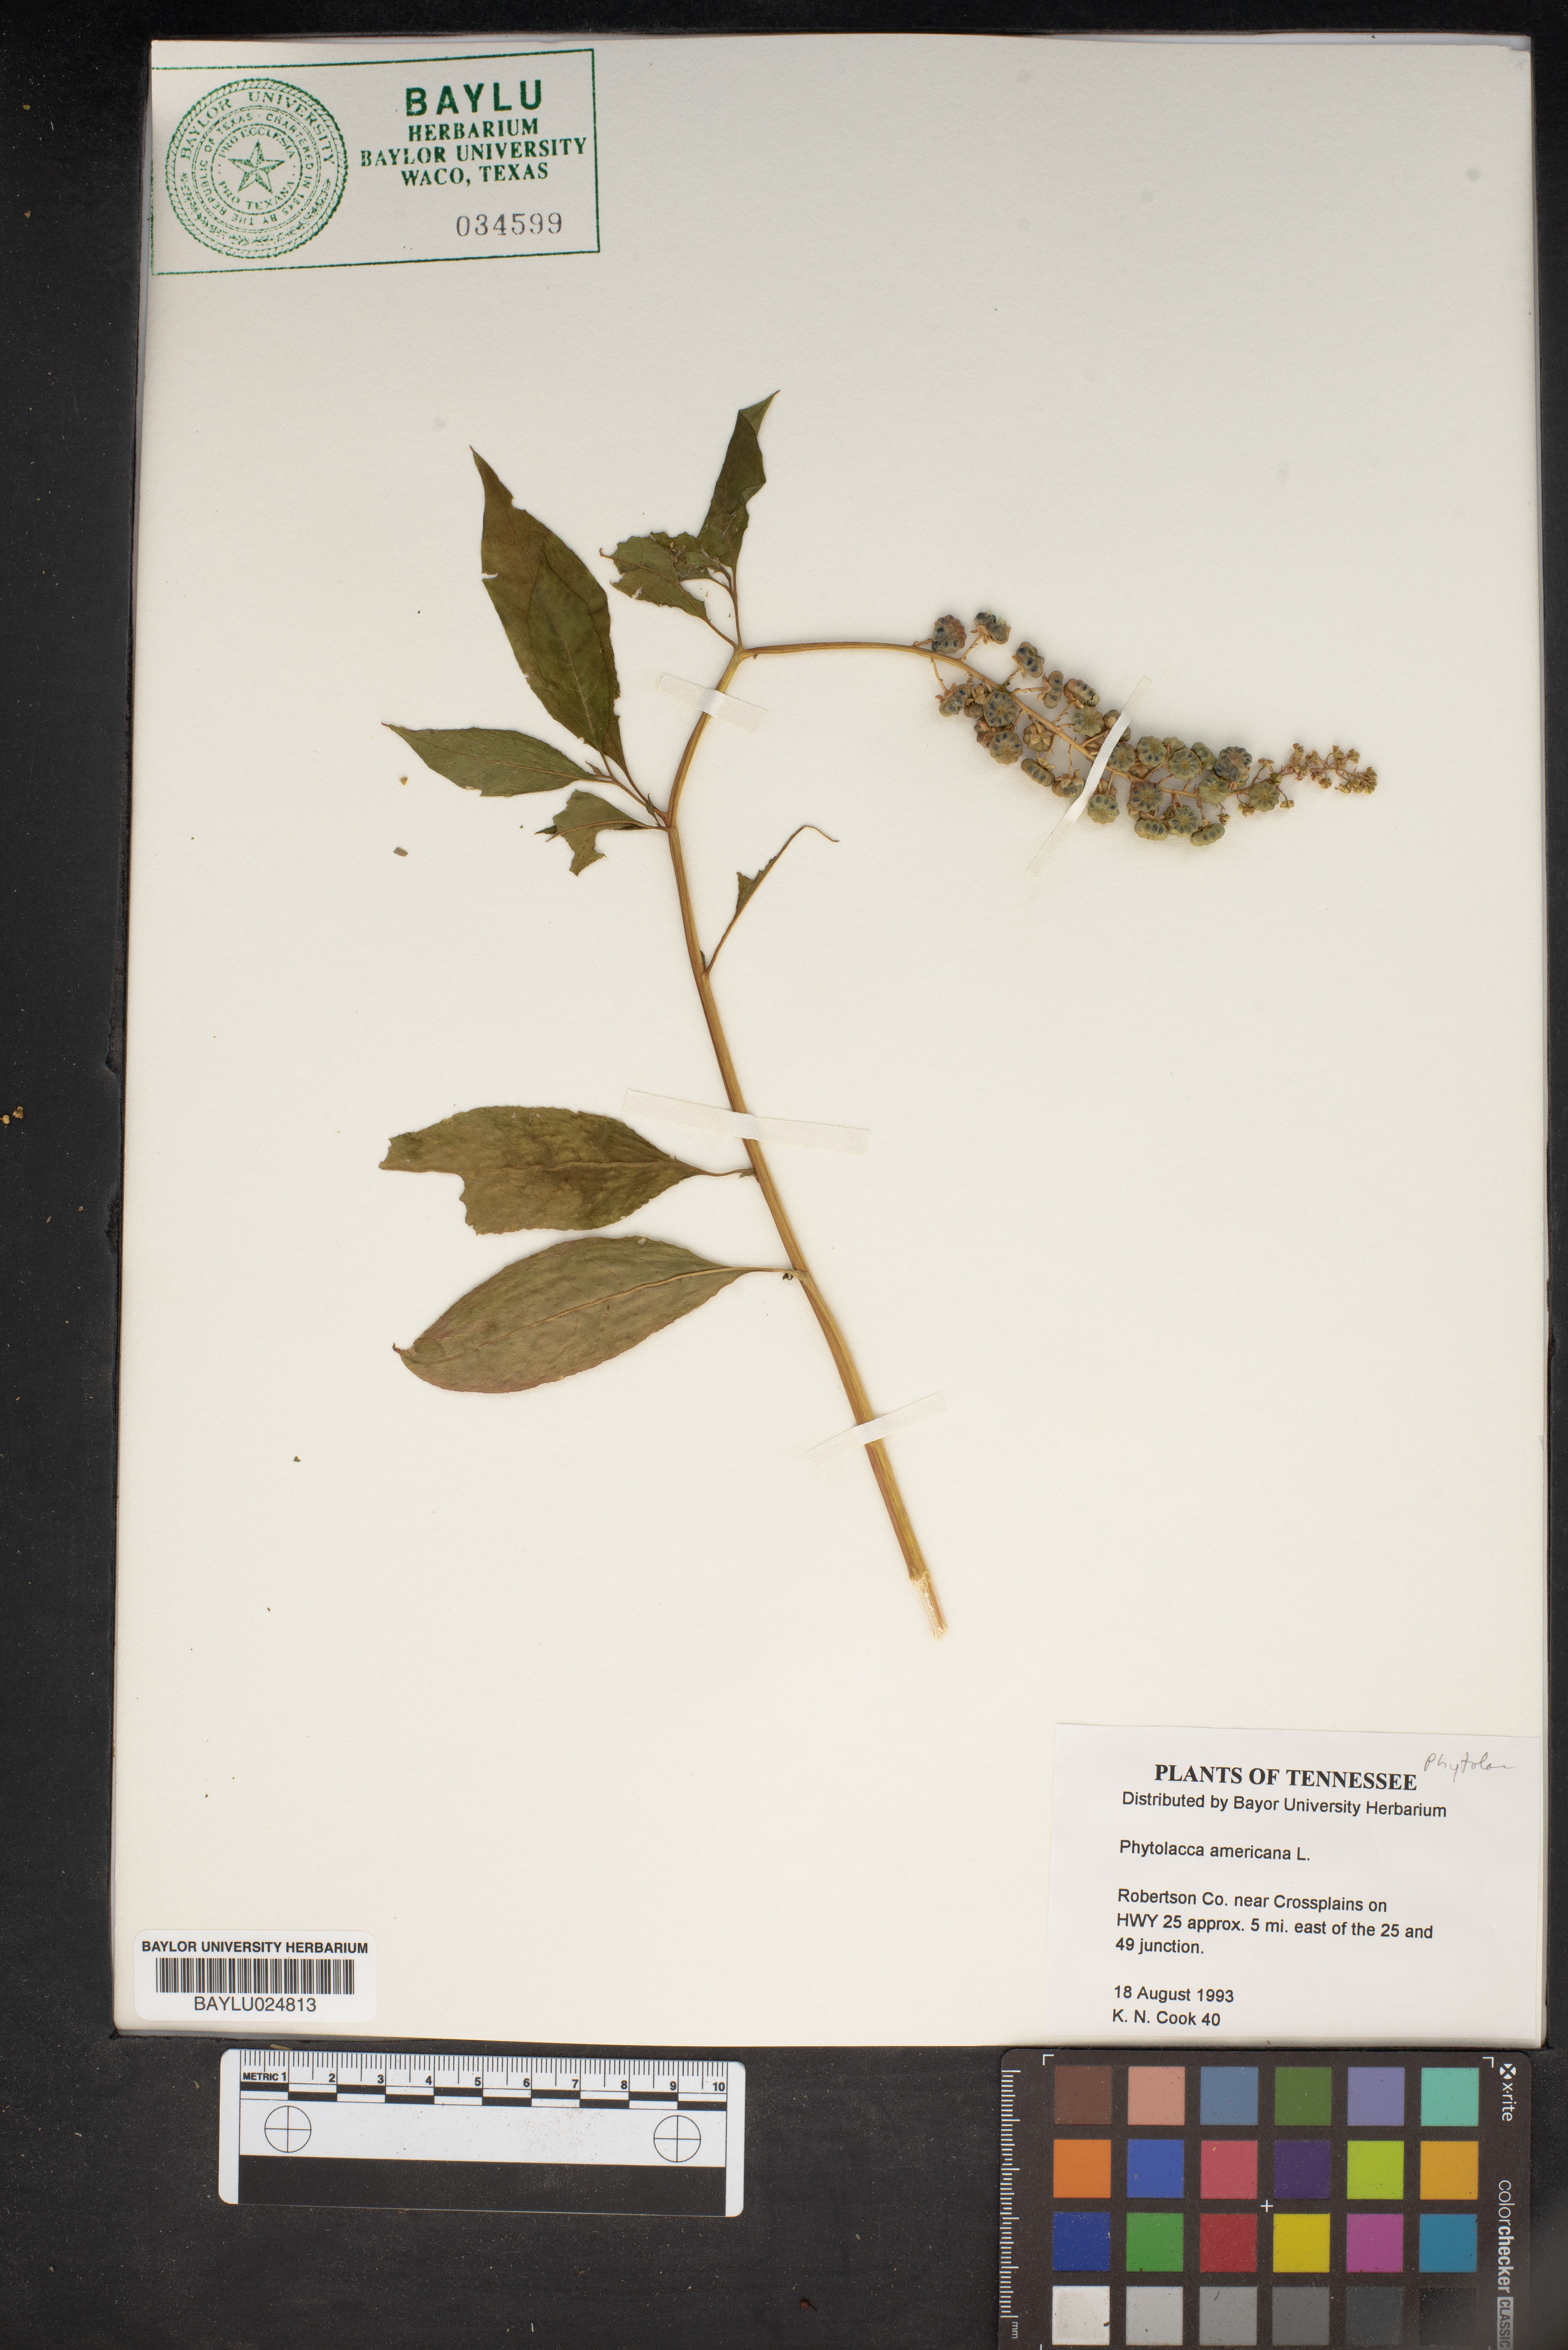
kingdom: Plantae
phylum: Tracheophyta
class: Magnoliopsida
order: Caryophyllales
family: Phytolaccaceae
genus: Phytolacca
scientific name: Phytolacca
